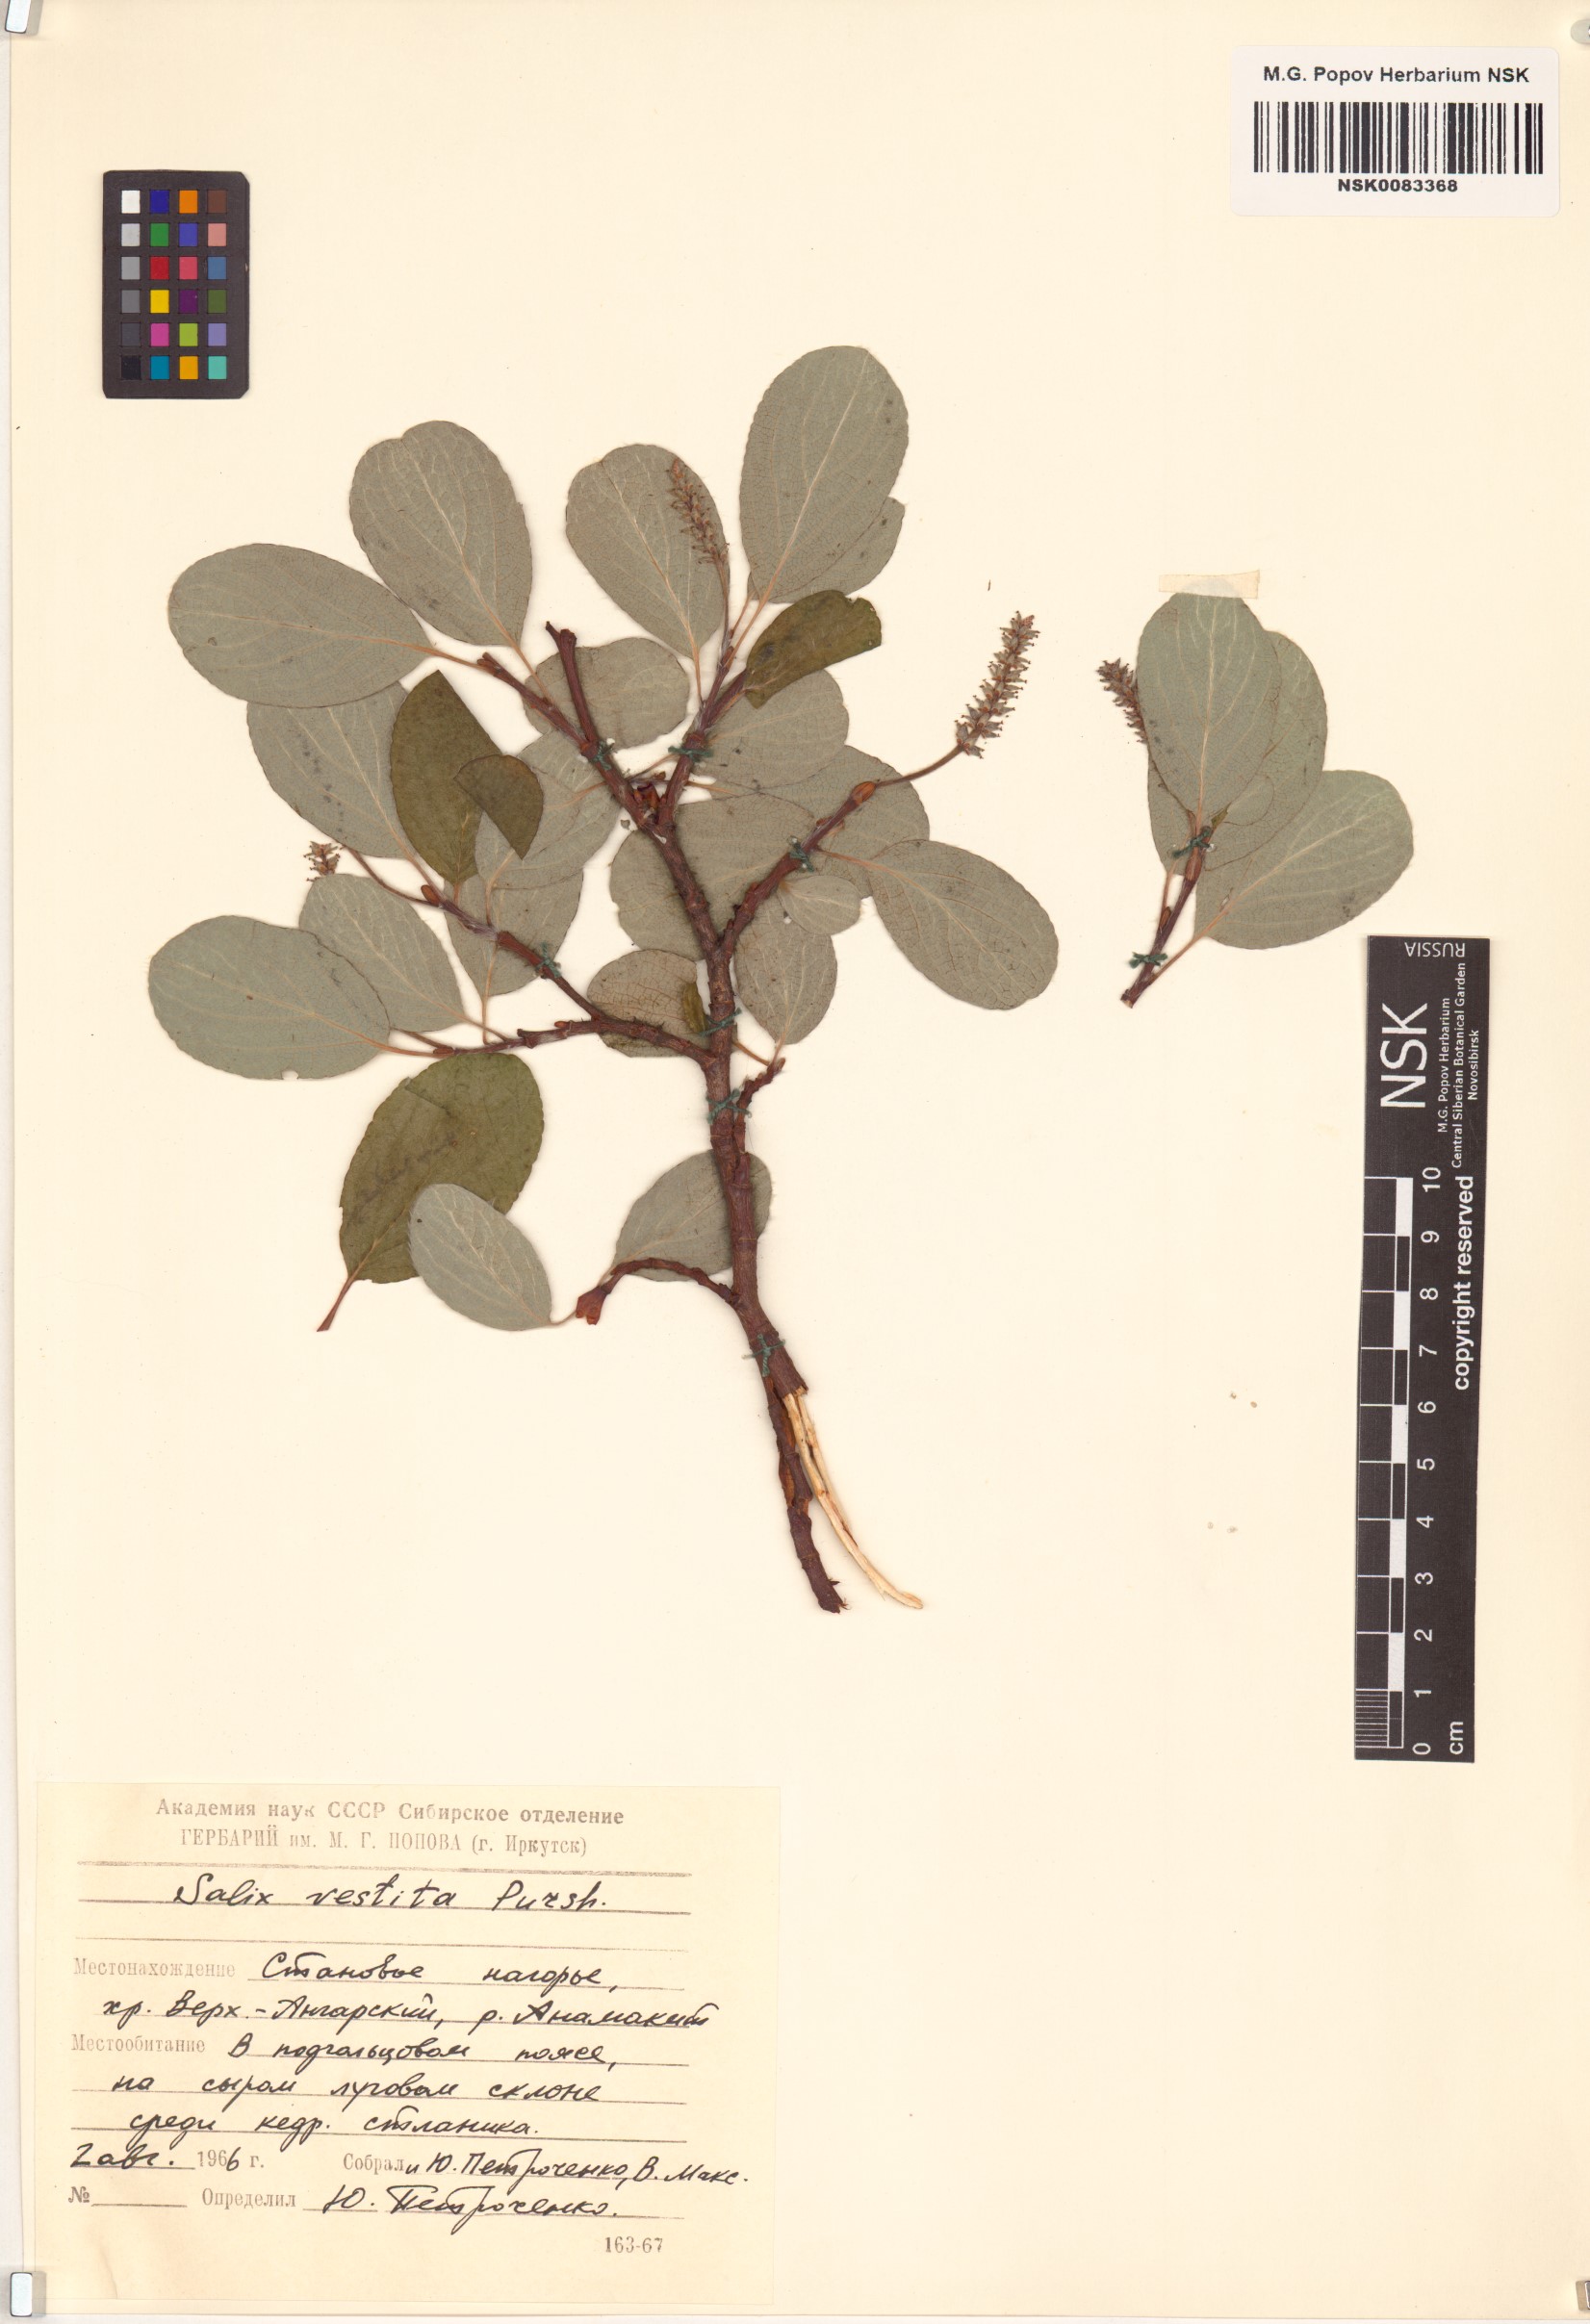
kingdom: Plantae
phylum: Tracheophyta
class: Magnoliopsida
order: Malpighiales
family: Salicaceae
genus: Salix
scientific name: Salix vestita
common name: Hairy willow
